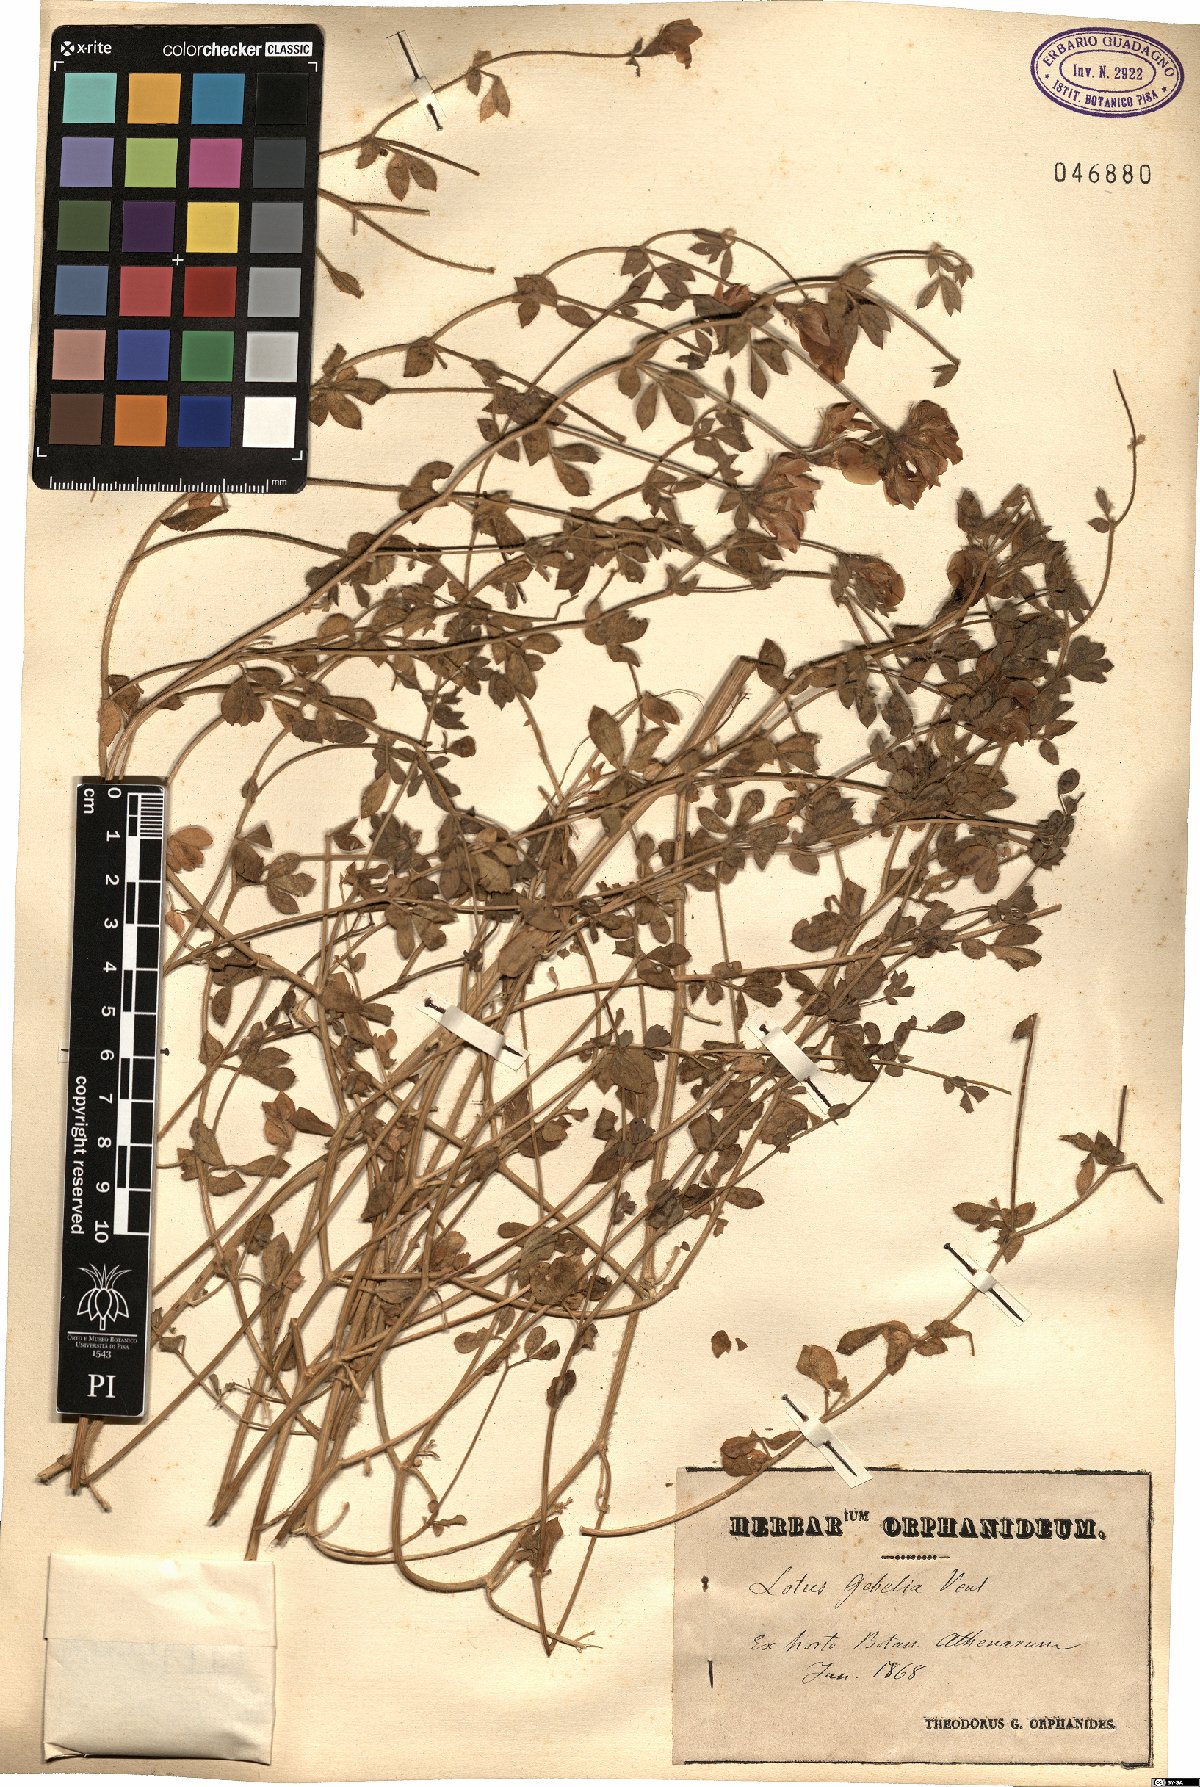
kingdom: Plantae
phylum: Tracheophyta
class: Magnoliopsida
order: Fabales
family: Fabaceae
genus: Lotus
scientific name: Lotus gebelia
